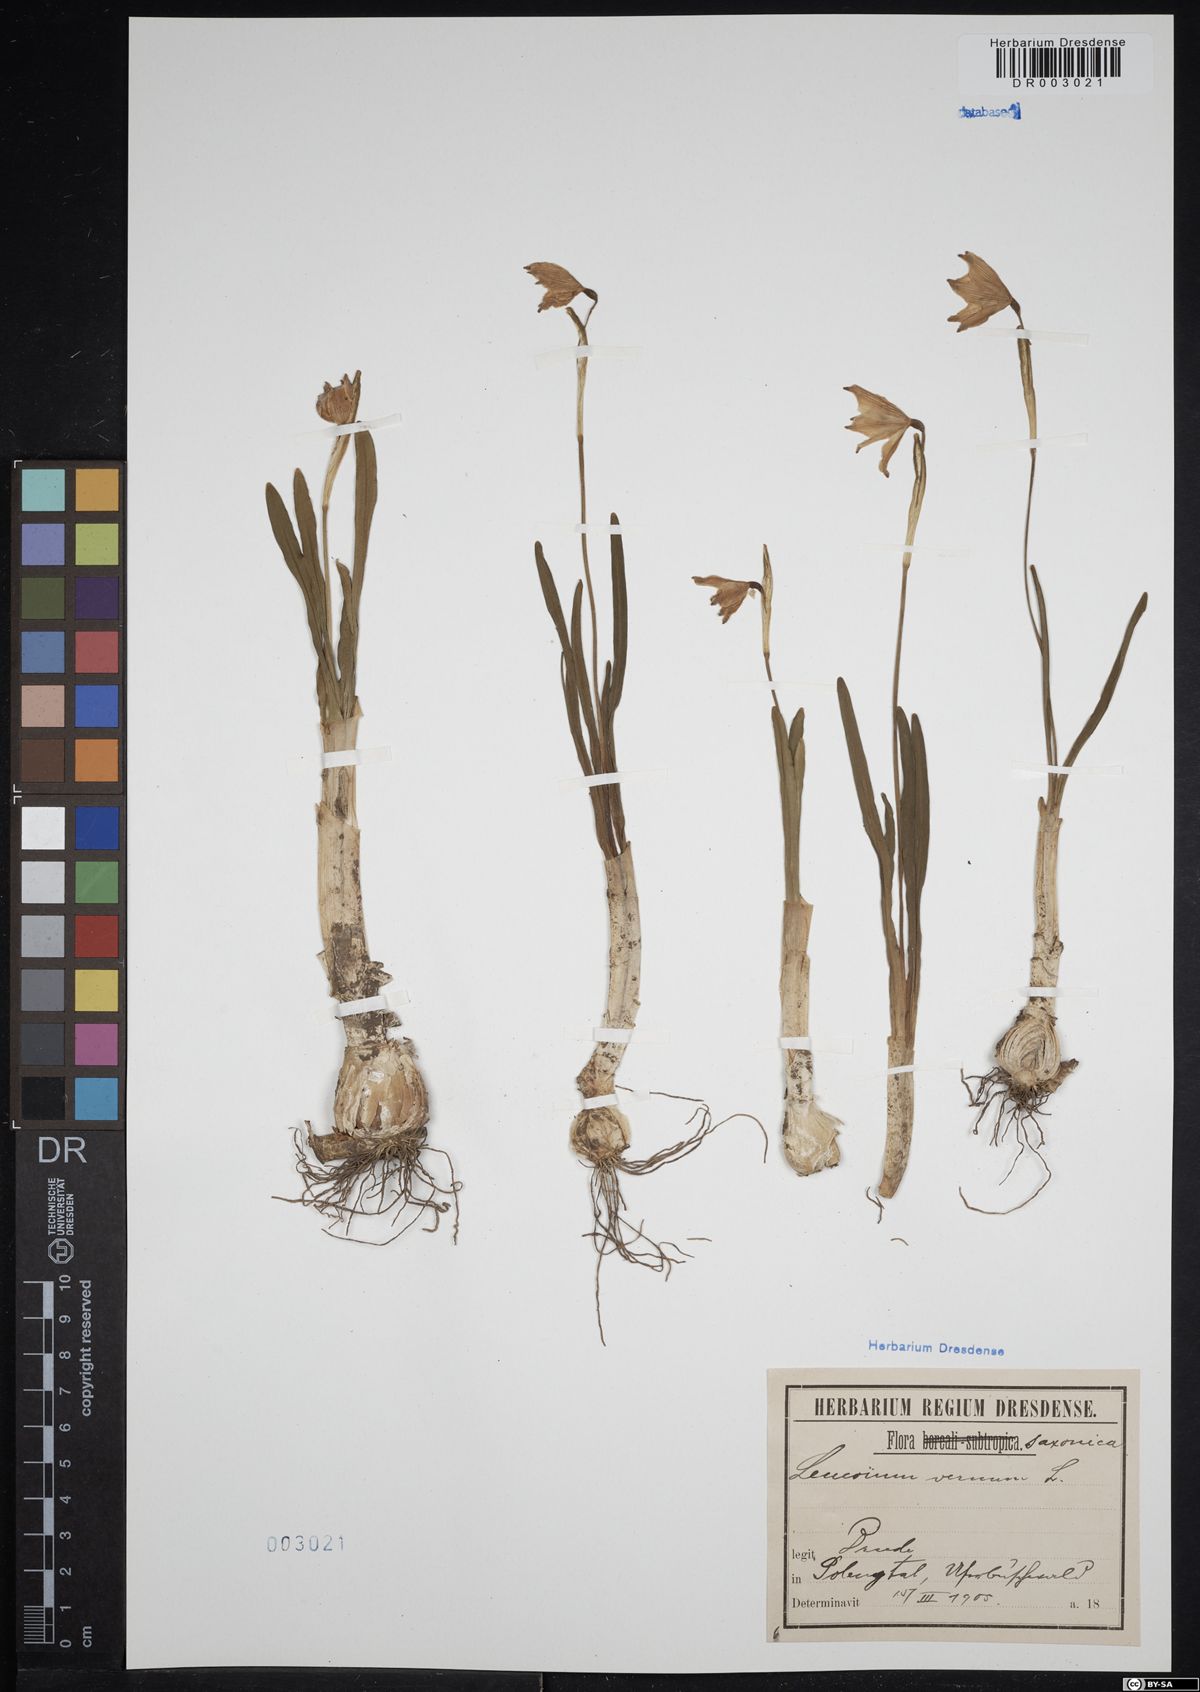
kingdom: Plantae
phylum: Tracheophyta
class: Liliopsida
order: Asparagales
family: Amaryllidaceae
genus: Leucojum
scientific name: Leucojum vernum
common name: Spring snowflake
